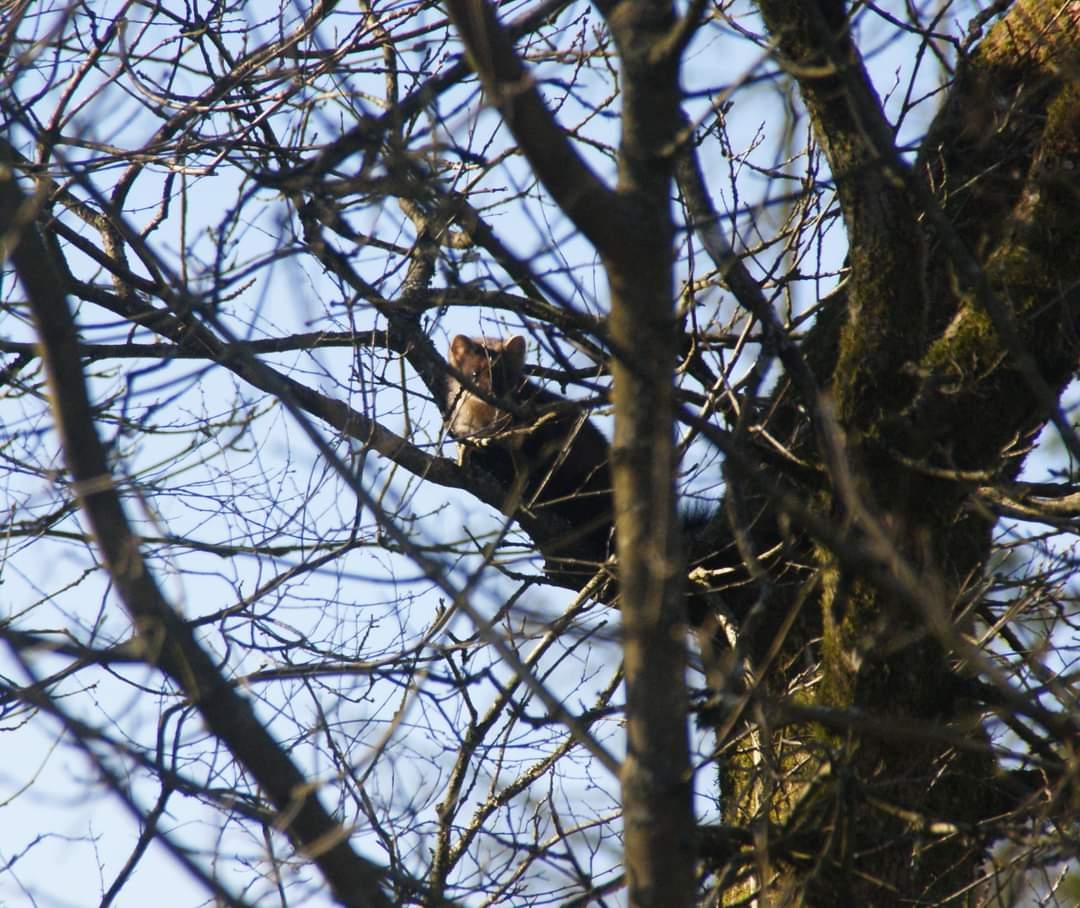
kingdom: Animalia
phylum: Chordata
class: Mammalia
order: Carnivora
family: Mustelidae
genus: Martes
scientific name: Martes martes
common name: Skovmår
